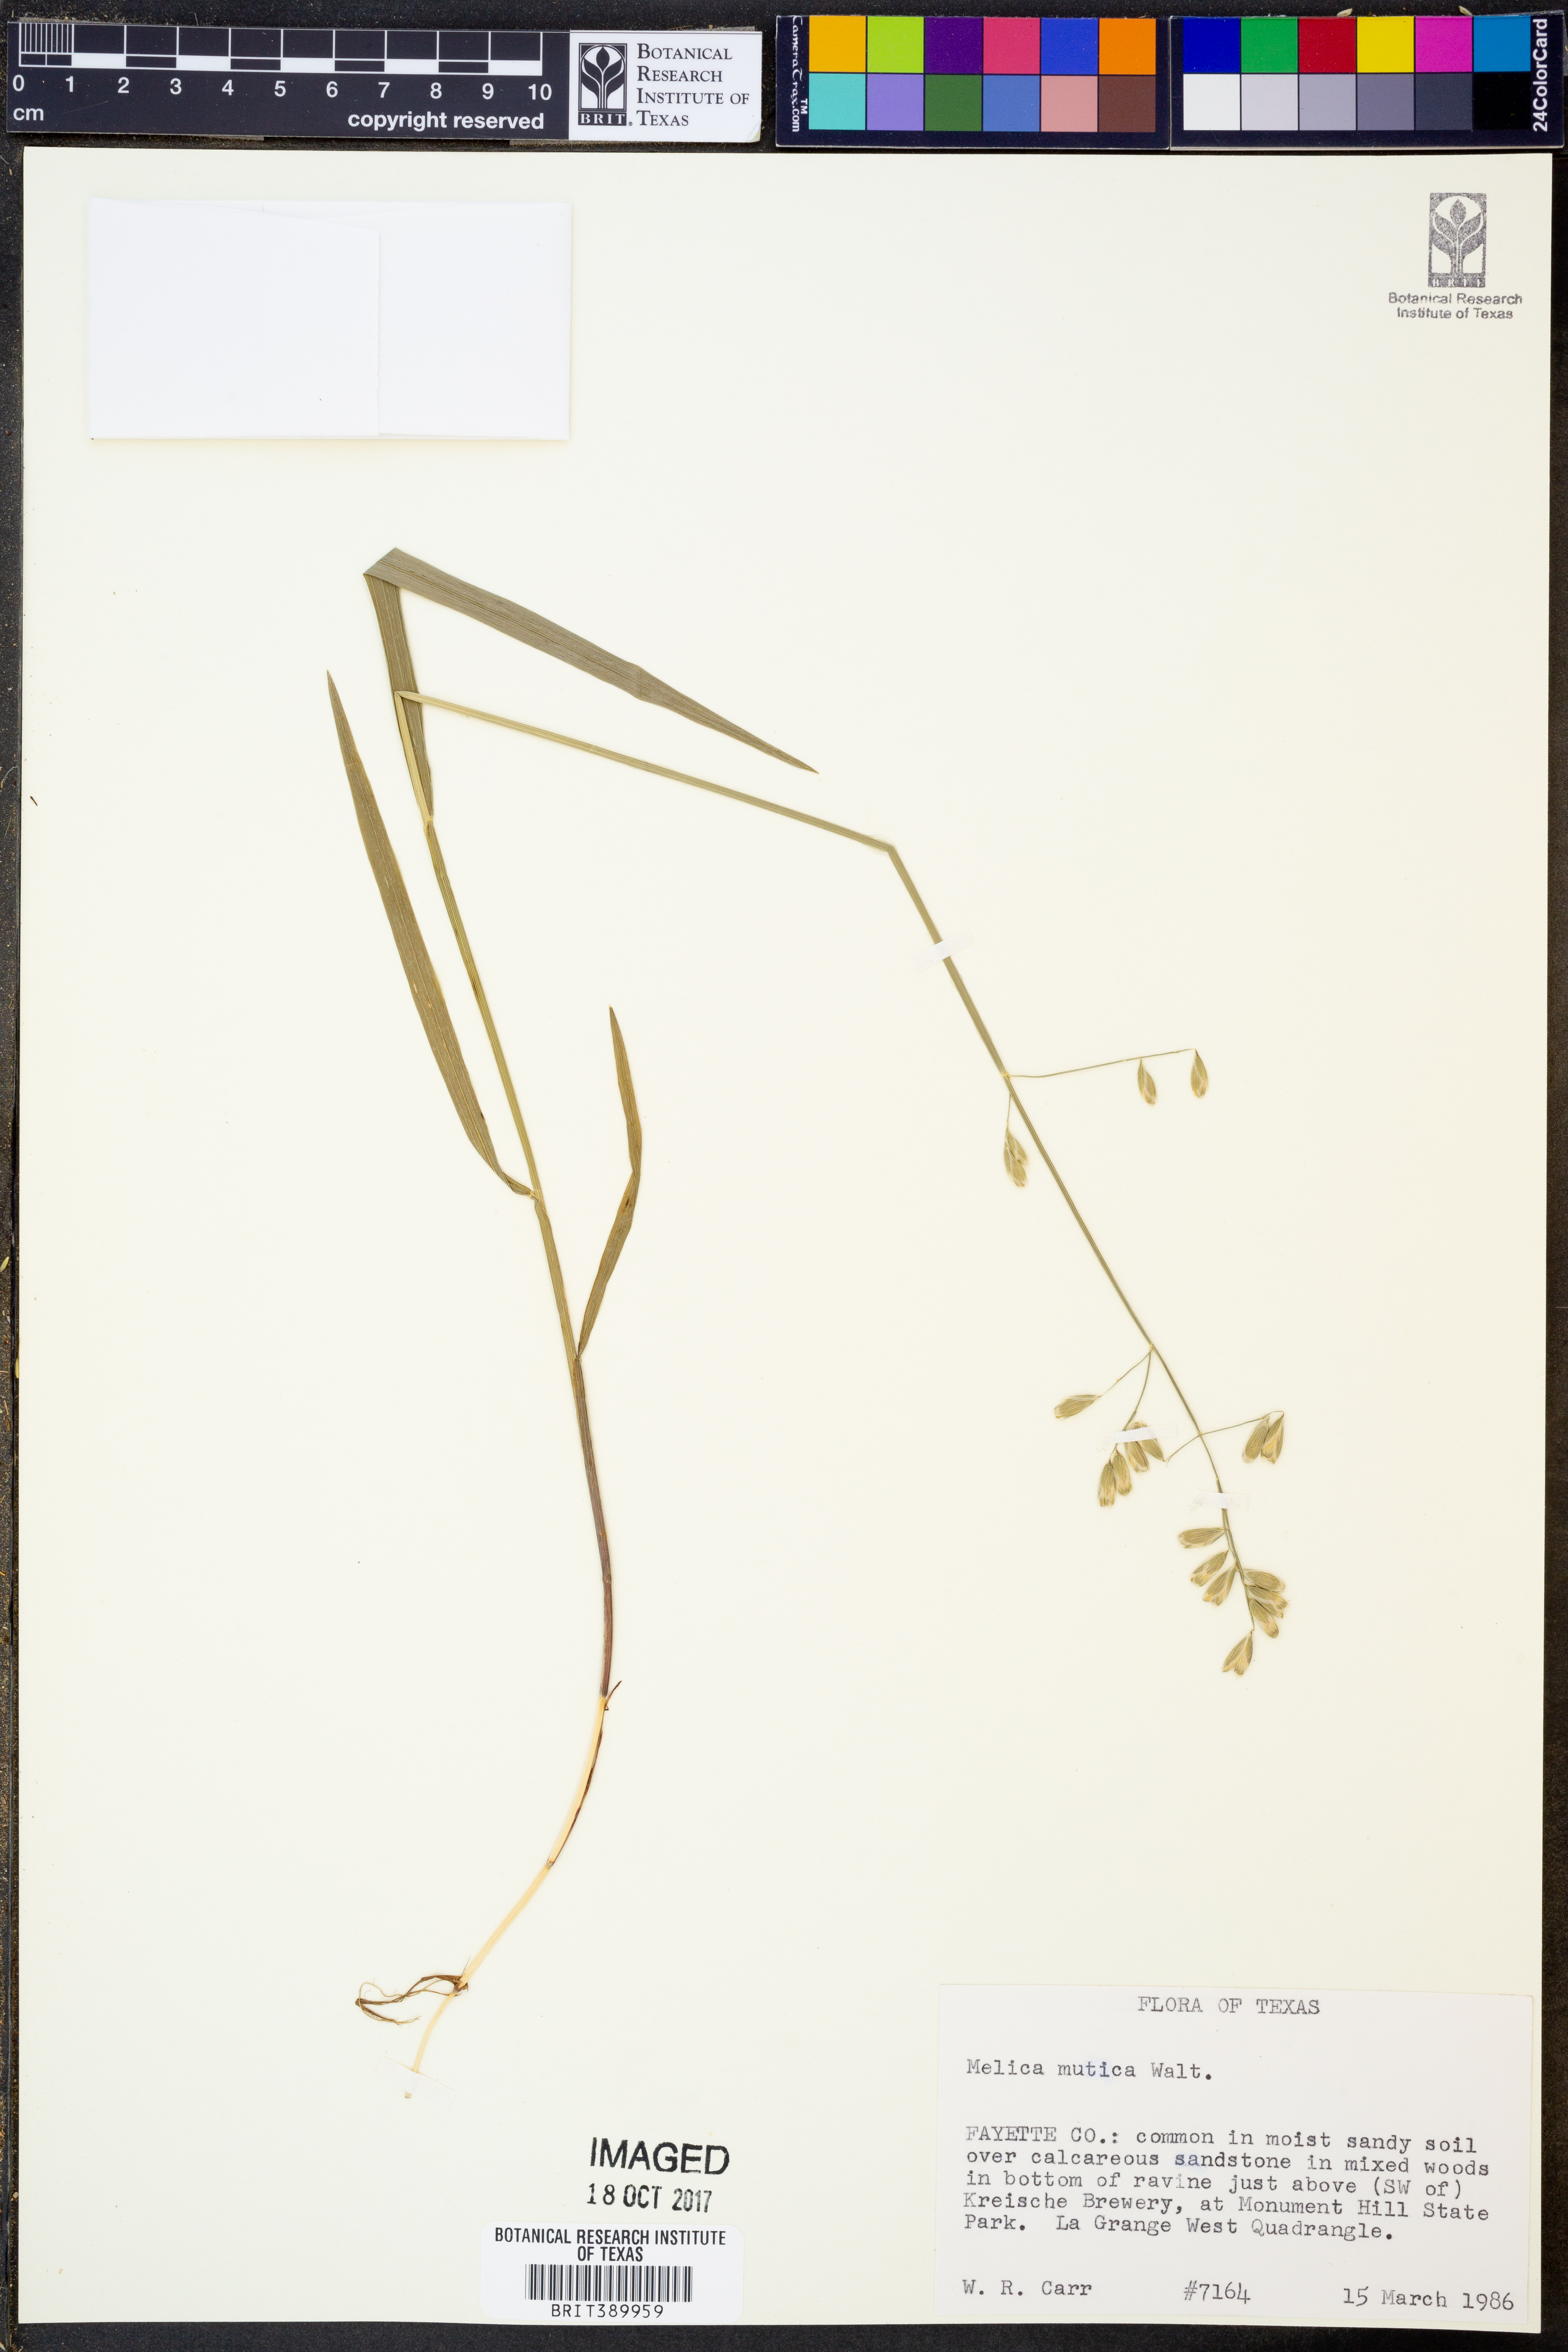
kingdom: Plantae
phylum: Tracheophyta
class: Liliopsida
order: Poales
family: Poaceae
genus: Melica
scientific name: Melica mutica
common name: Two-flower melic
